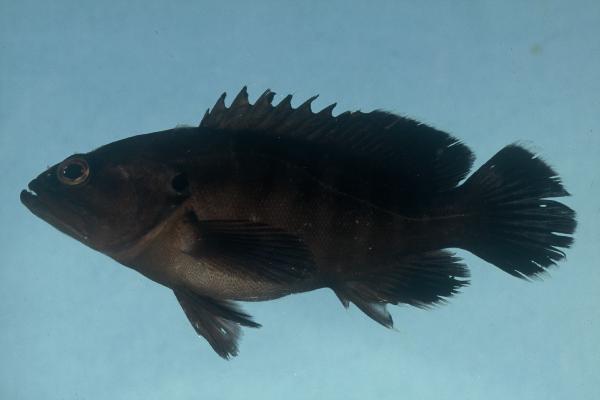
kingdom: Animalia
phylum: Chordata
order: Perciformes
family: Serranidae
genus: Cephalopholis
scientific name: Cephalopholis boenak
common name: Chocolate hind
